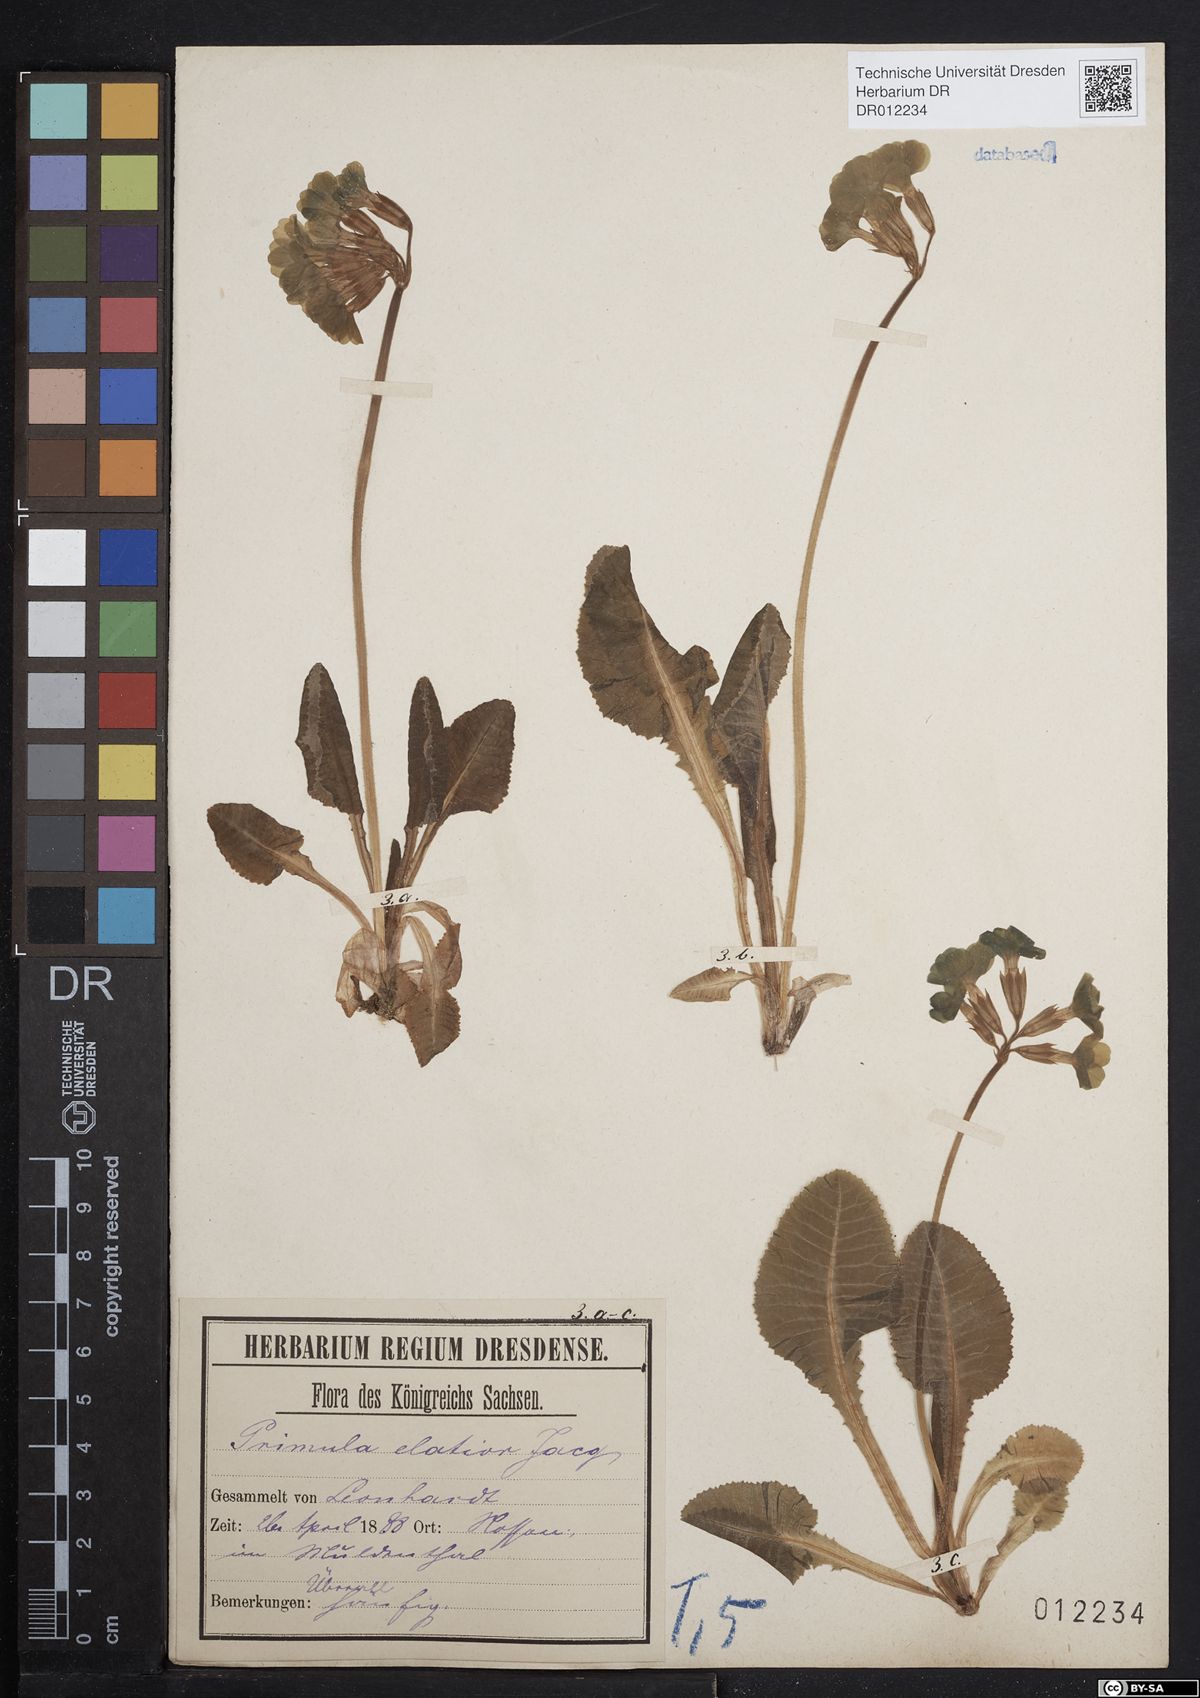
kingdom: Plantae
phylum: Tracheophyta
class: Magnoliopsida
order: Ericales
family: Primulaceae
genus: Primula
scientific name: Primula elatior
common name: Oxlip
